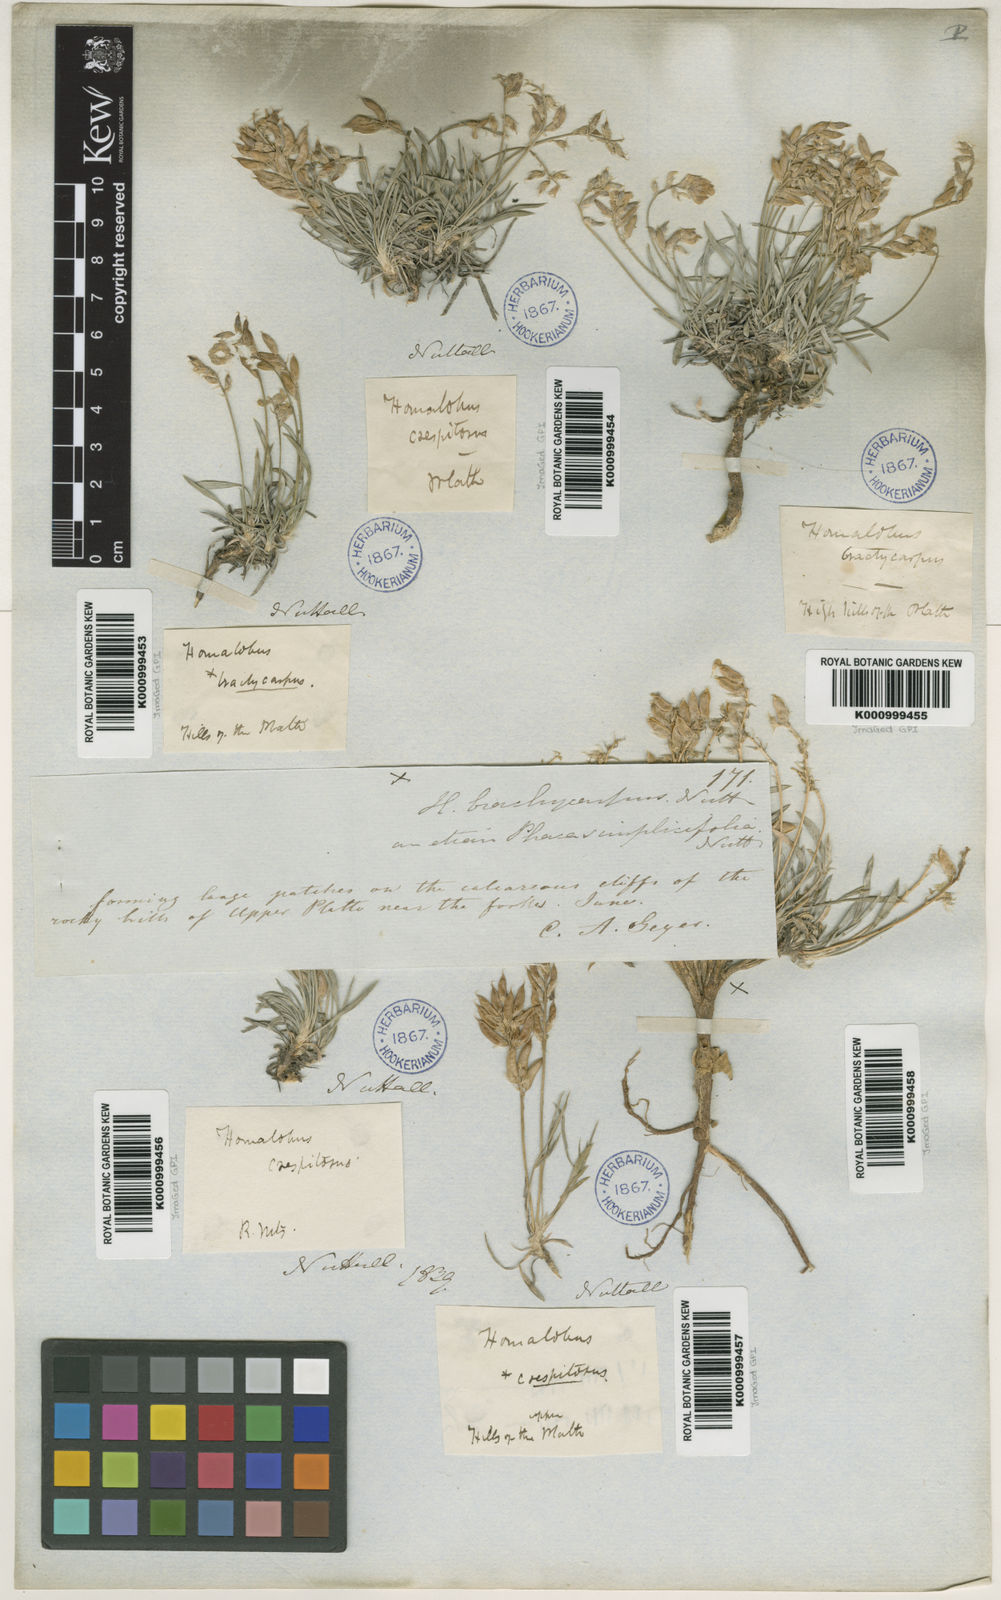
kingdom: Plantae
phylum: Tracheophyta
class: Magnoliopsida
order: Fabales
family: Fabaceae
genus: Oxytropis
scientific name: Oxytropis caespitosa
